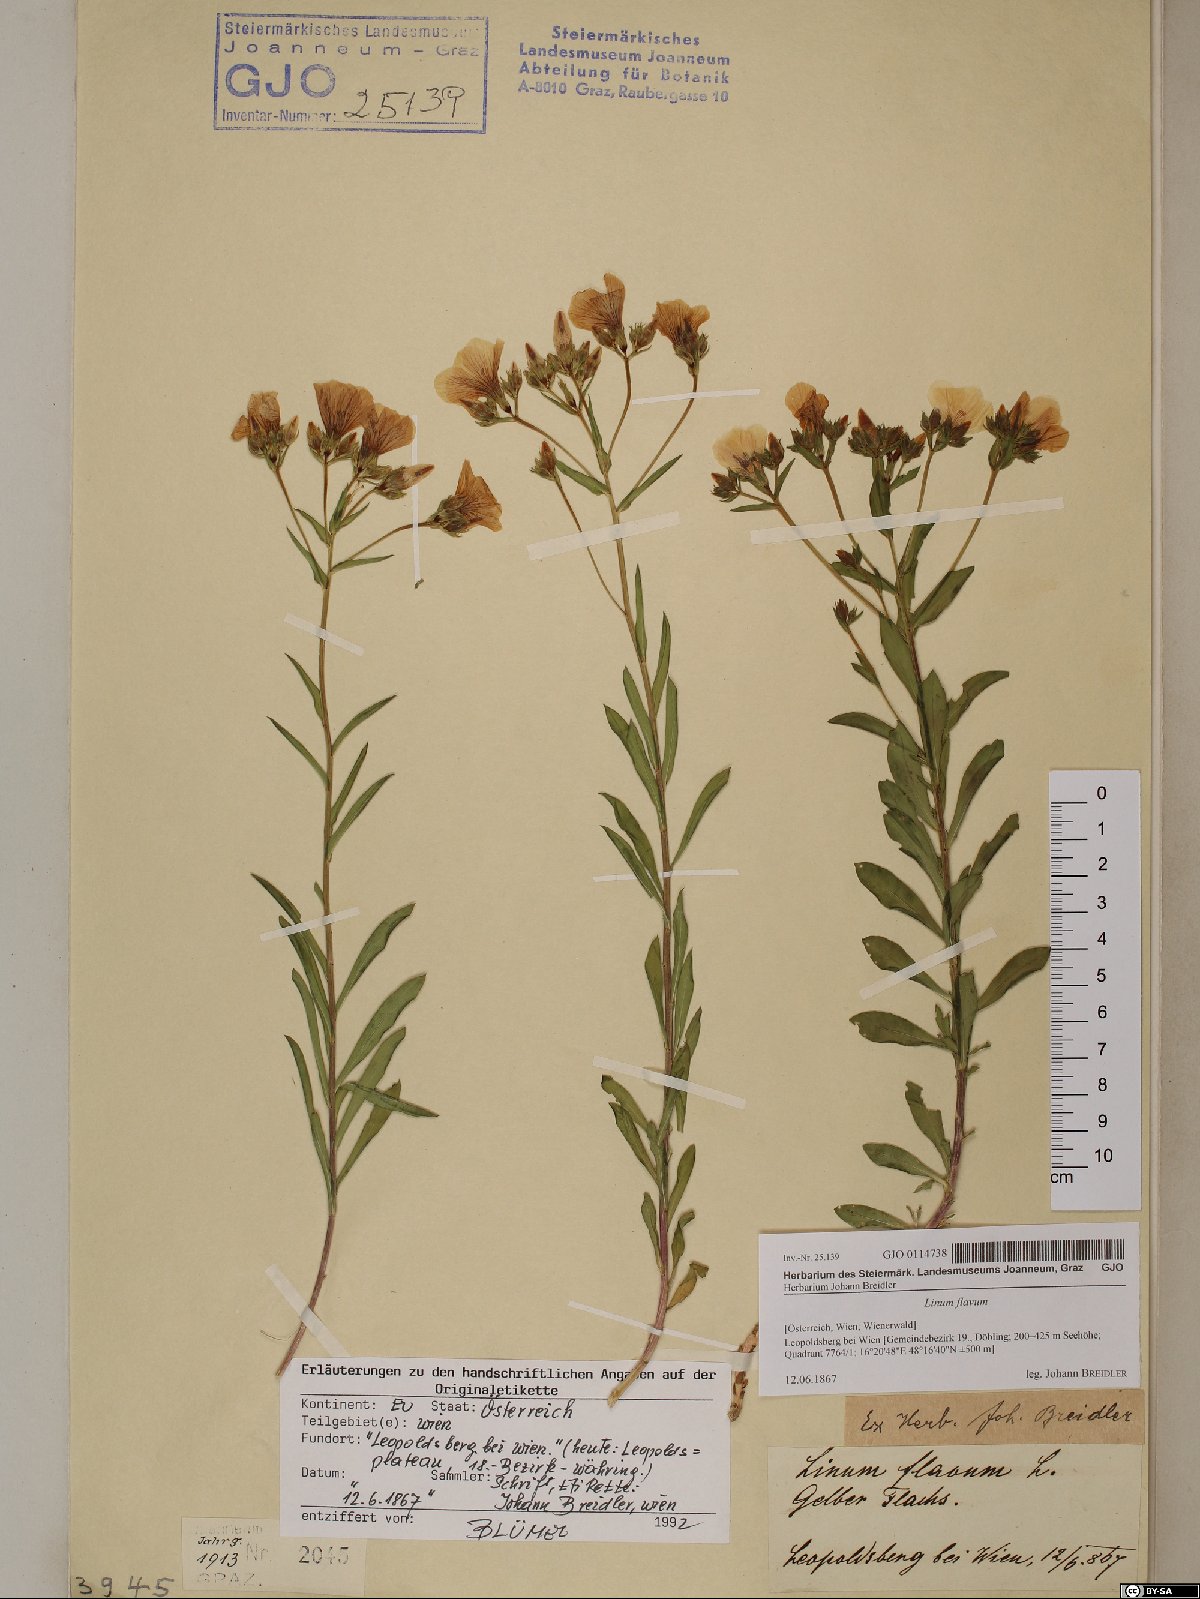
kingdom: Plantae
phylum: Tracheophyta
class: Magnoliopsida
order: Malpighiales
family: Linaceae
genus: Linum
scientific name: Linum flavum
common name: Yellow flax
